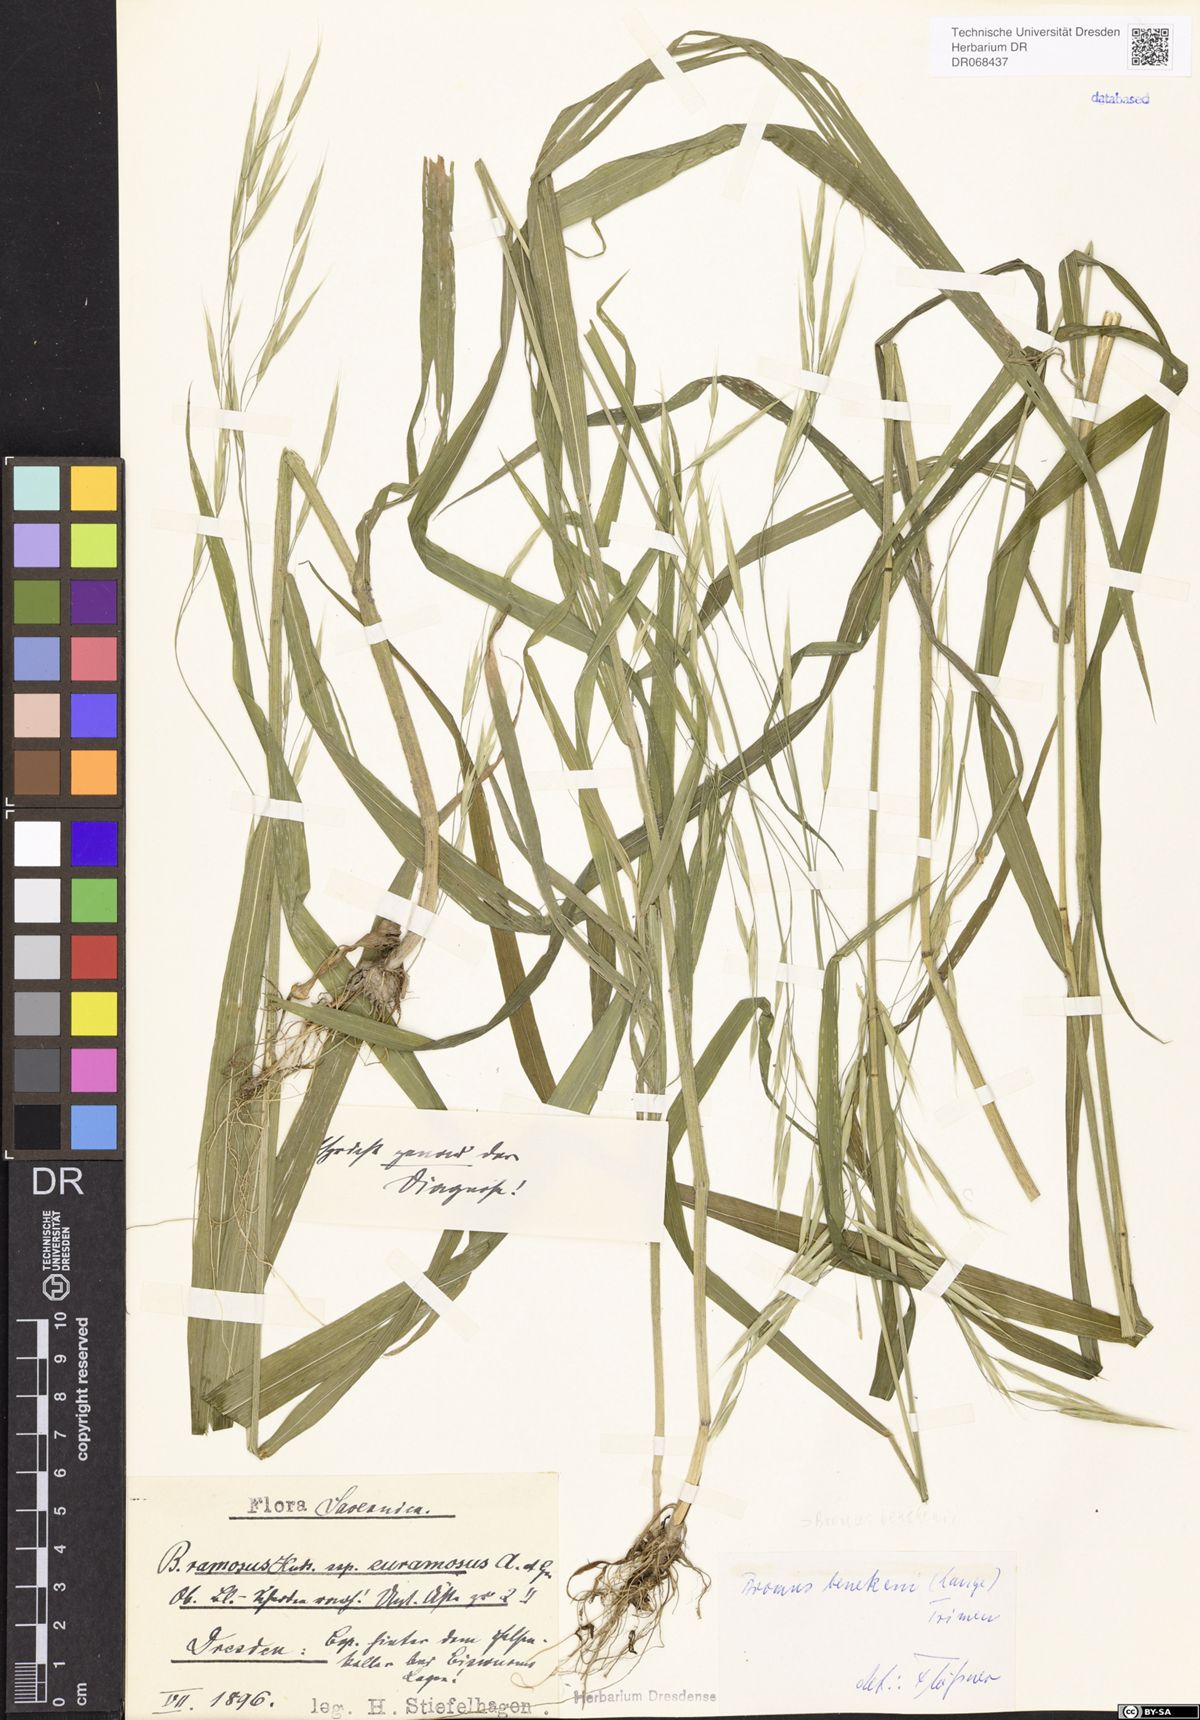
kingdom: Plantae
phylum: Tracheophyta
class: Liliopsida
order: Poales
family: Poaceae
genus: Bromus
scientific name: Bromus benekenii
